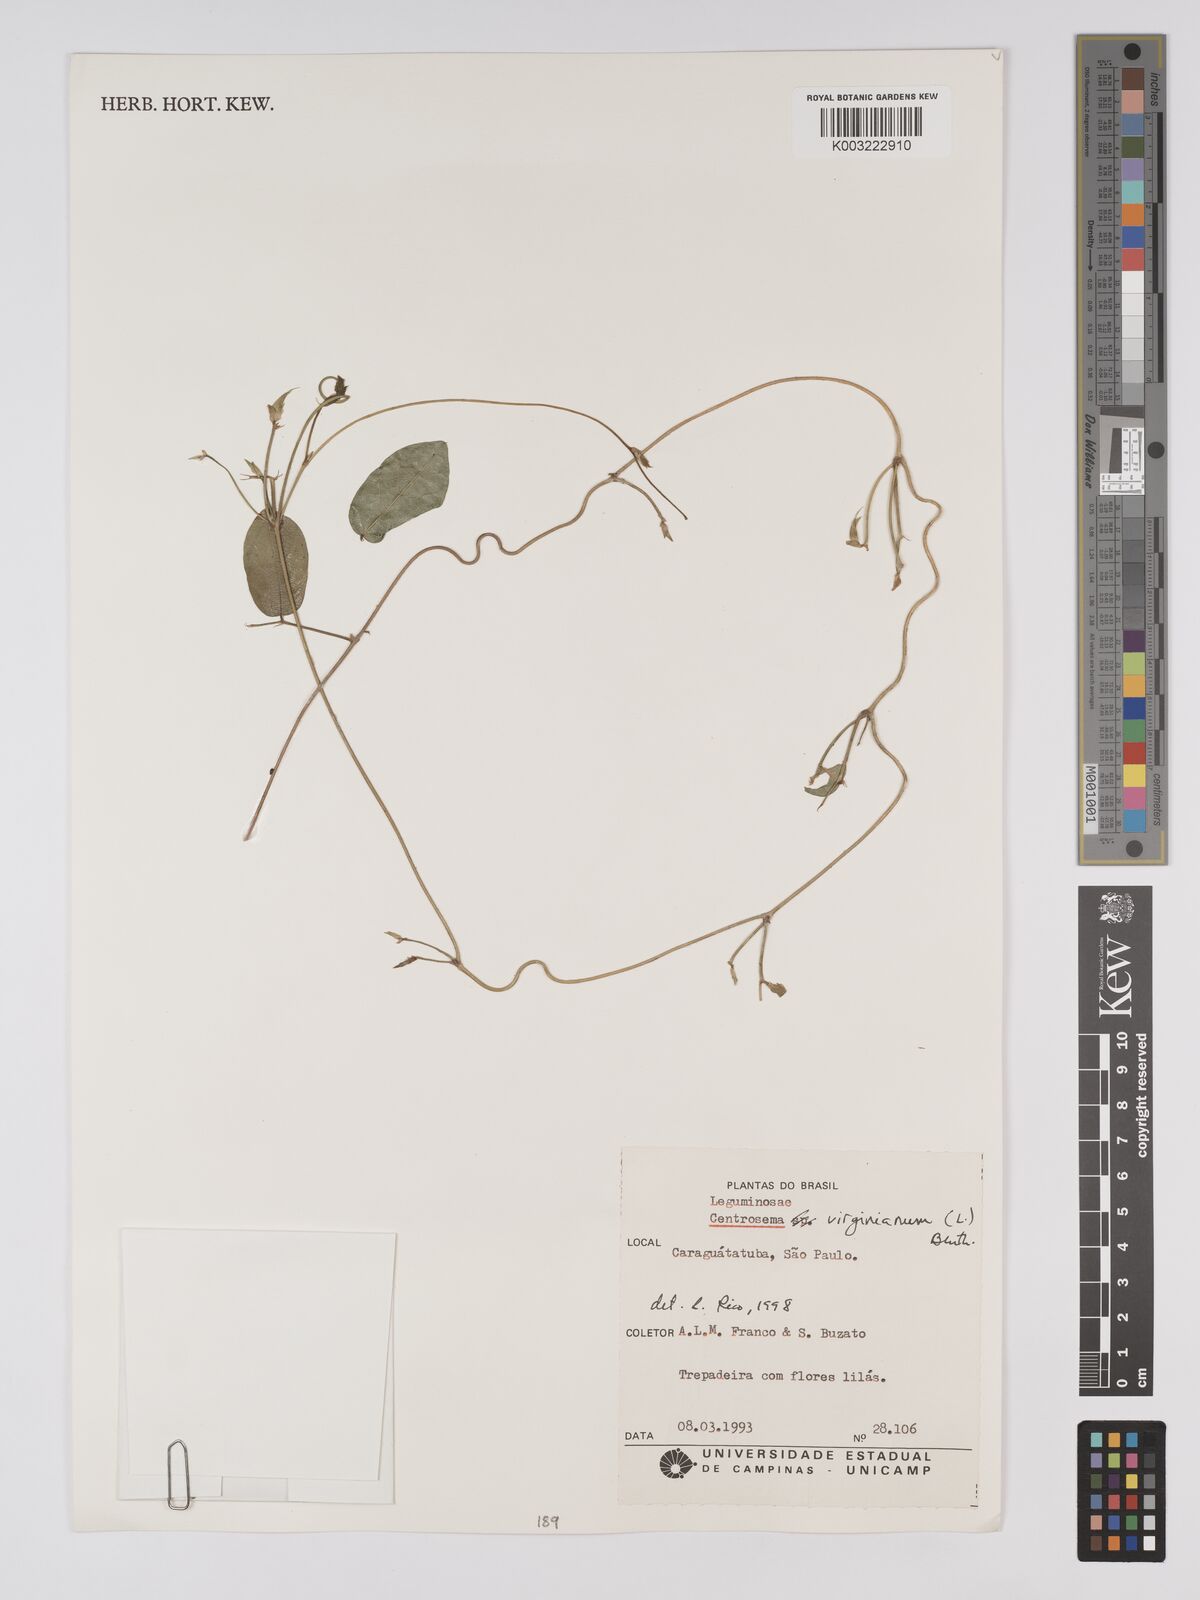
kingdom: Plantae
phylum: Tracheophyta
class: Magnoliopsida
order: Fabales
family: Fabaceae
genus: Centrosema
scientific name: Centrosema virginianum
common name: Butterfly-pea
